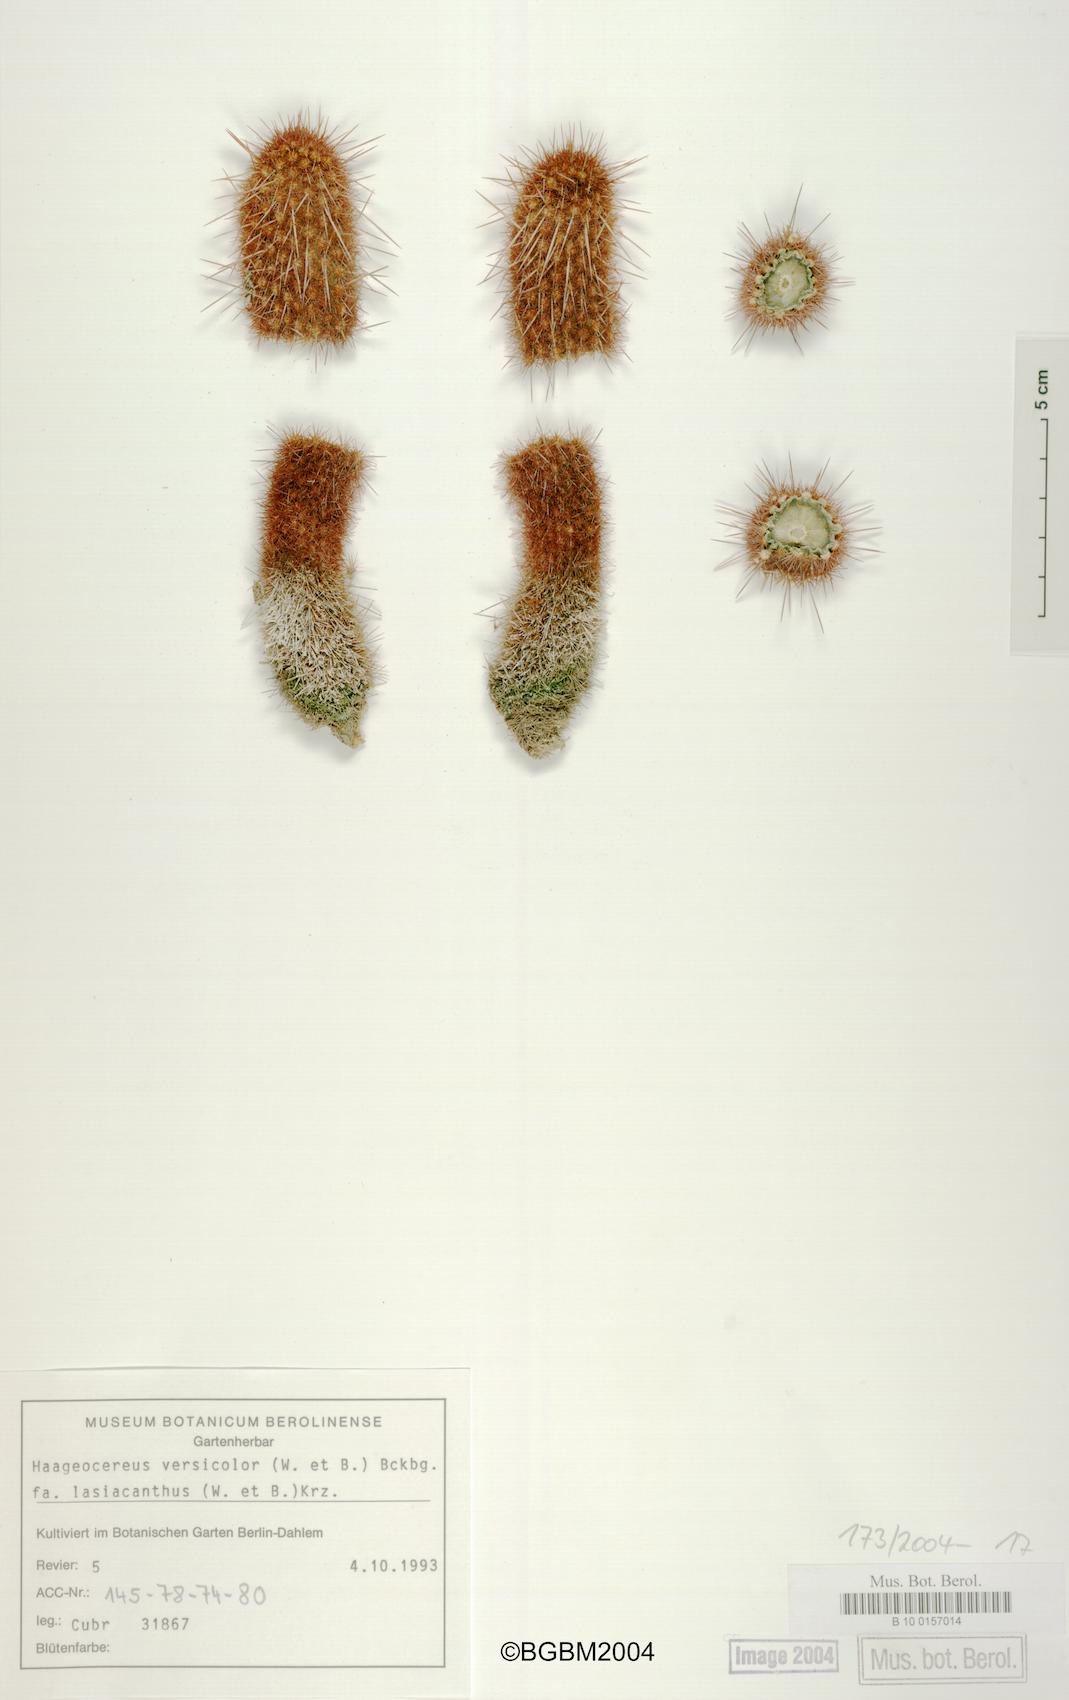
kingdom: Plantae
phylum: Tracheophyta
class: Magnoliopsida
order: Caryophyllales
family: Cactaceae
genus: Haageocereus
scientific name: Haageocereus versicolor
